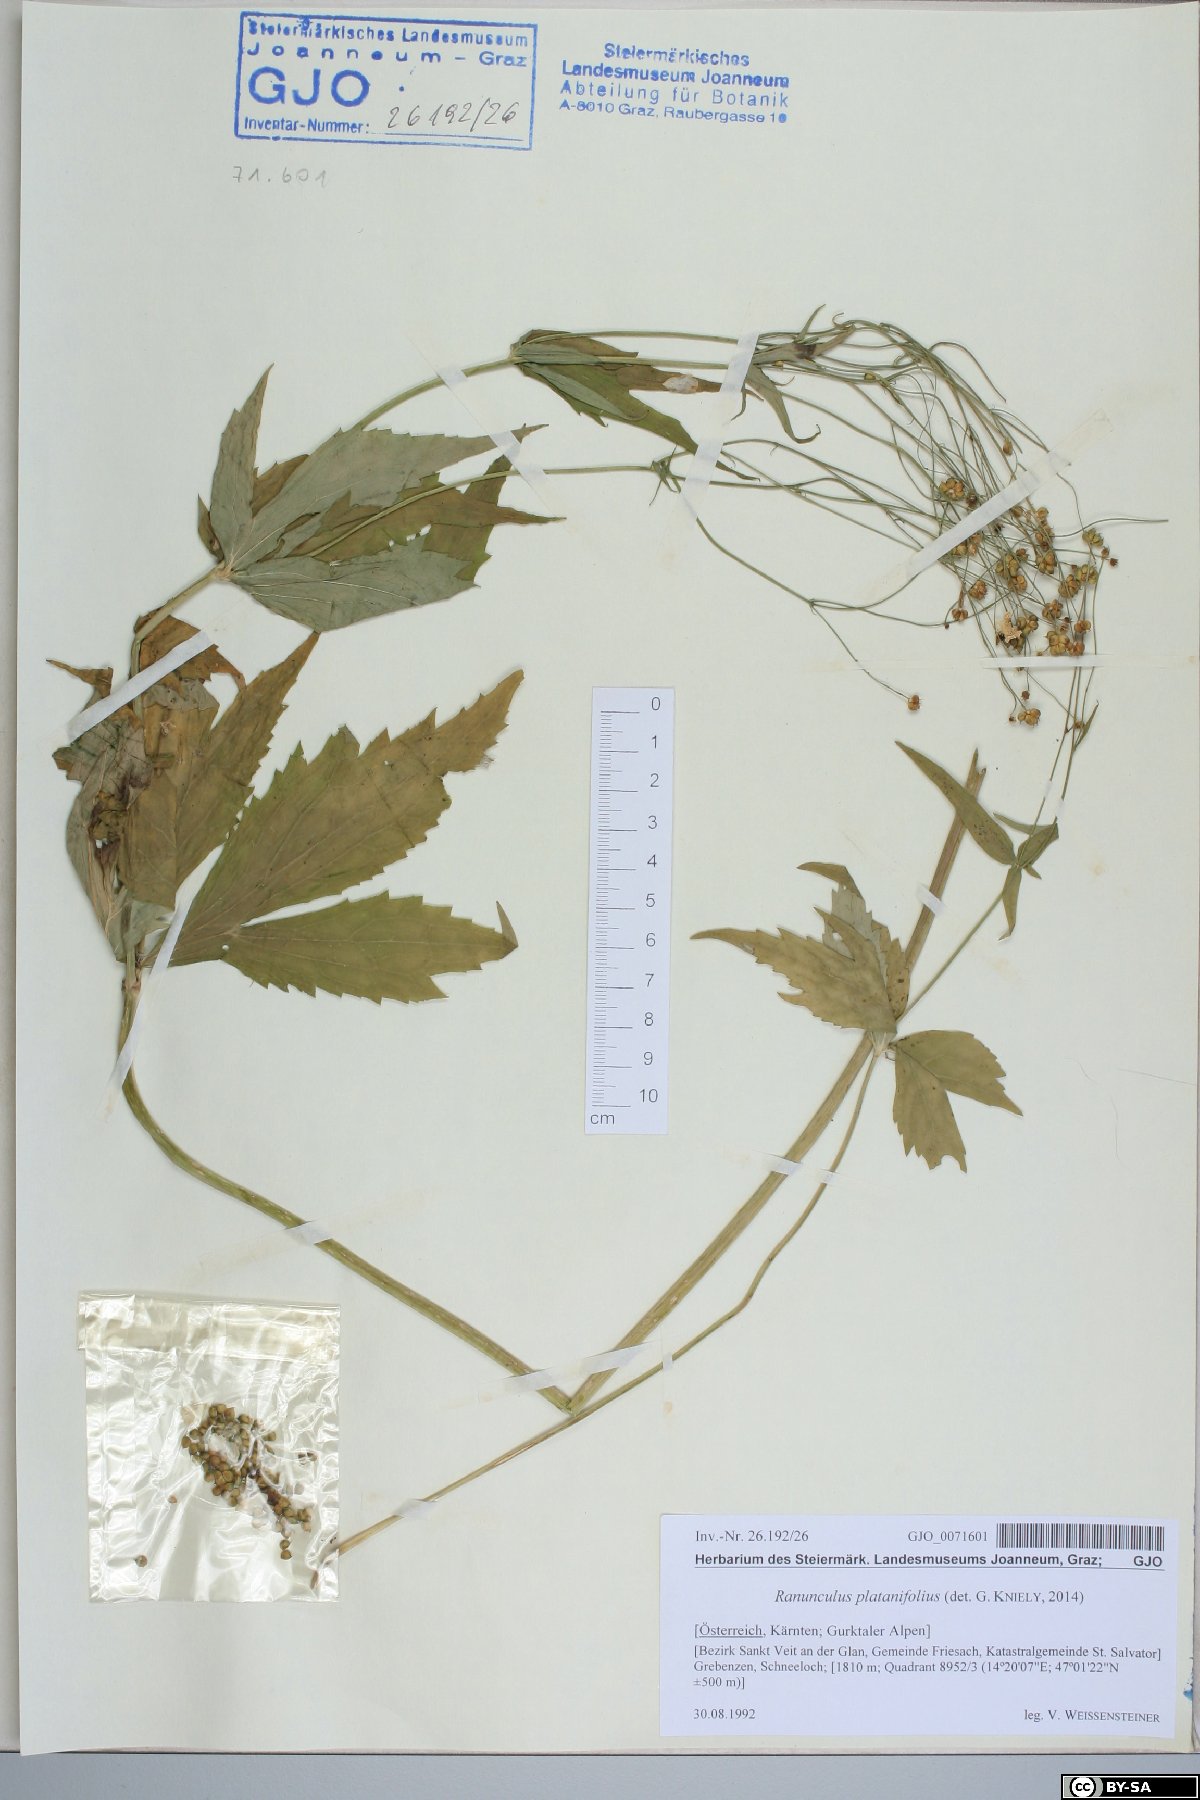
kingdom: Plantae
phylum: Tracheophyta
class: Magnoliopsida
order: Ranunculales
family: Ranunculaceae
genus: Ranunculus
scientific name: Ranunculus platanifolius
